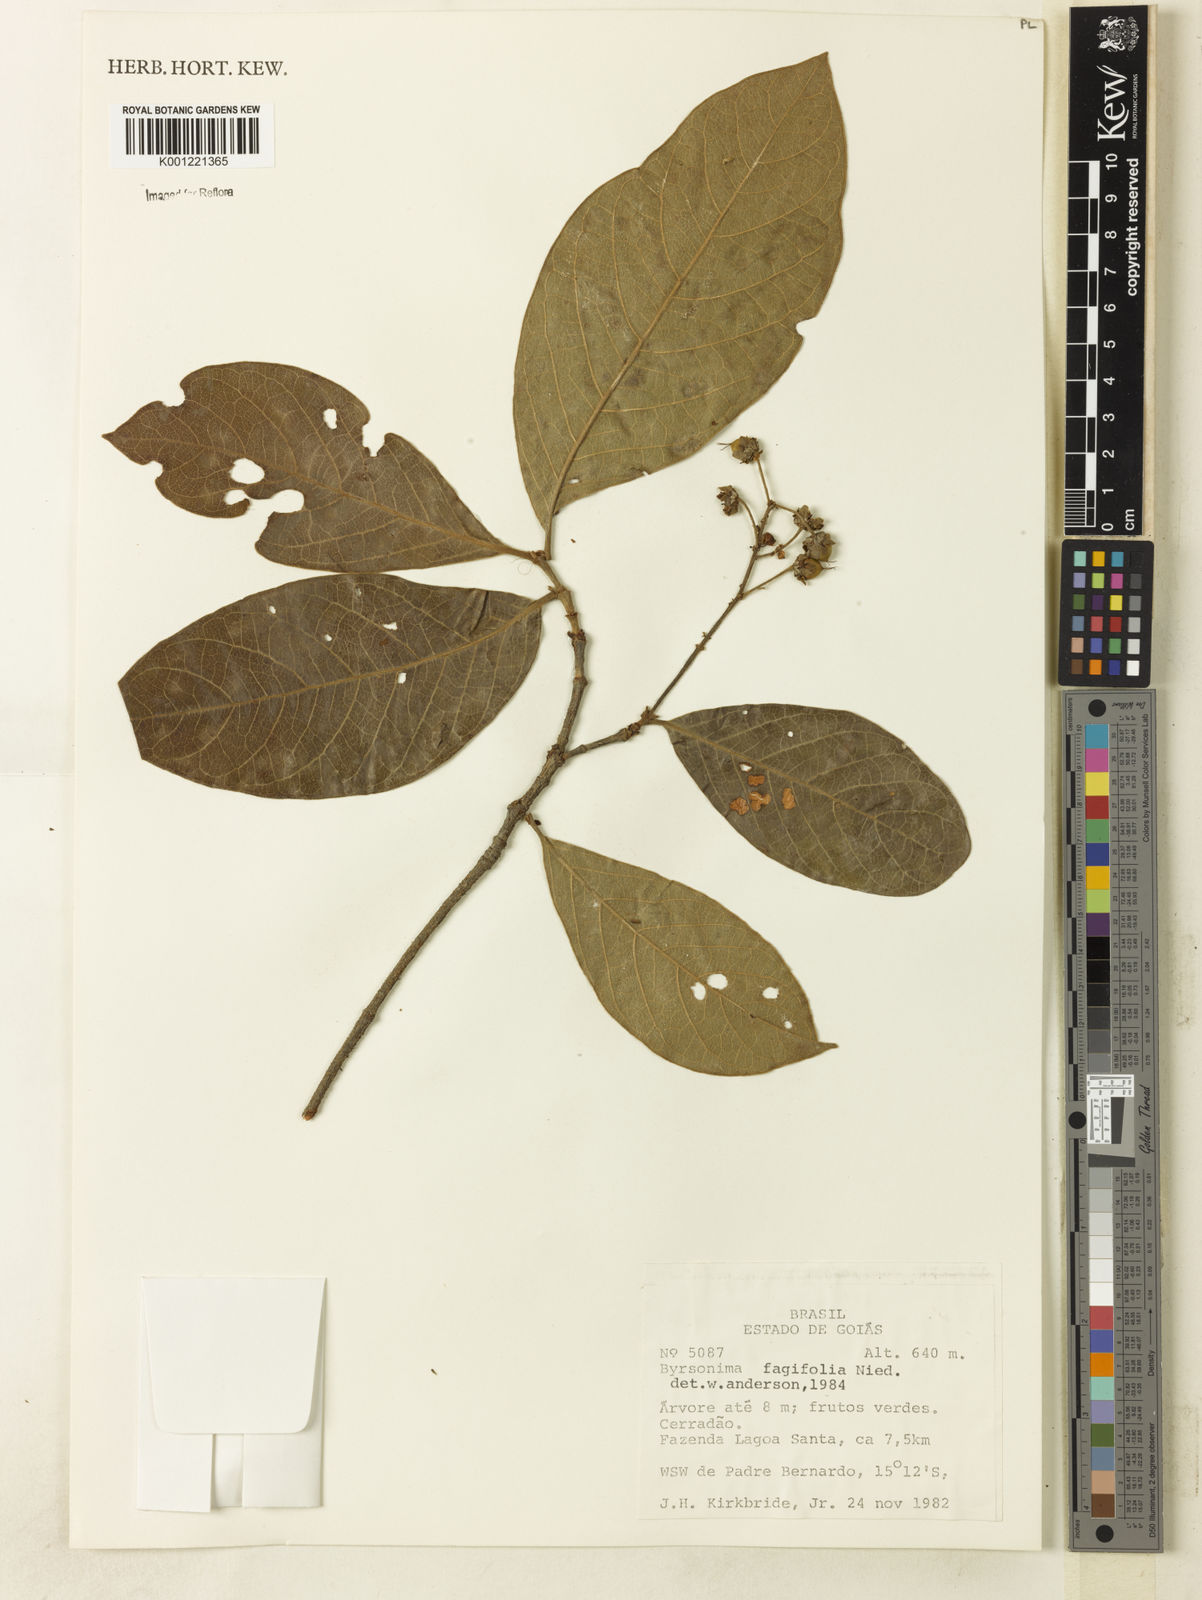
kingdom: Plantae
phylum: Tracheophyta
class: Magnoliopsida
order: Malpighiales
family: Malpighiaceae
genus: Byrsonima
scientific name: Byrsonima crassifolia
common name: Golden spoon
